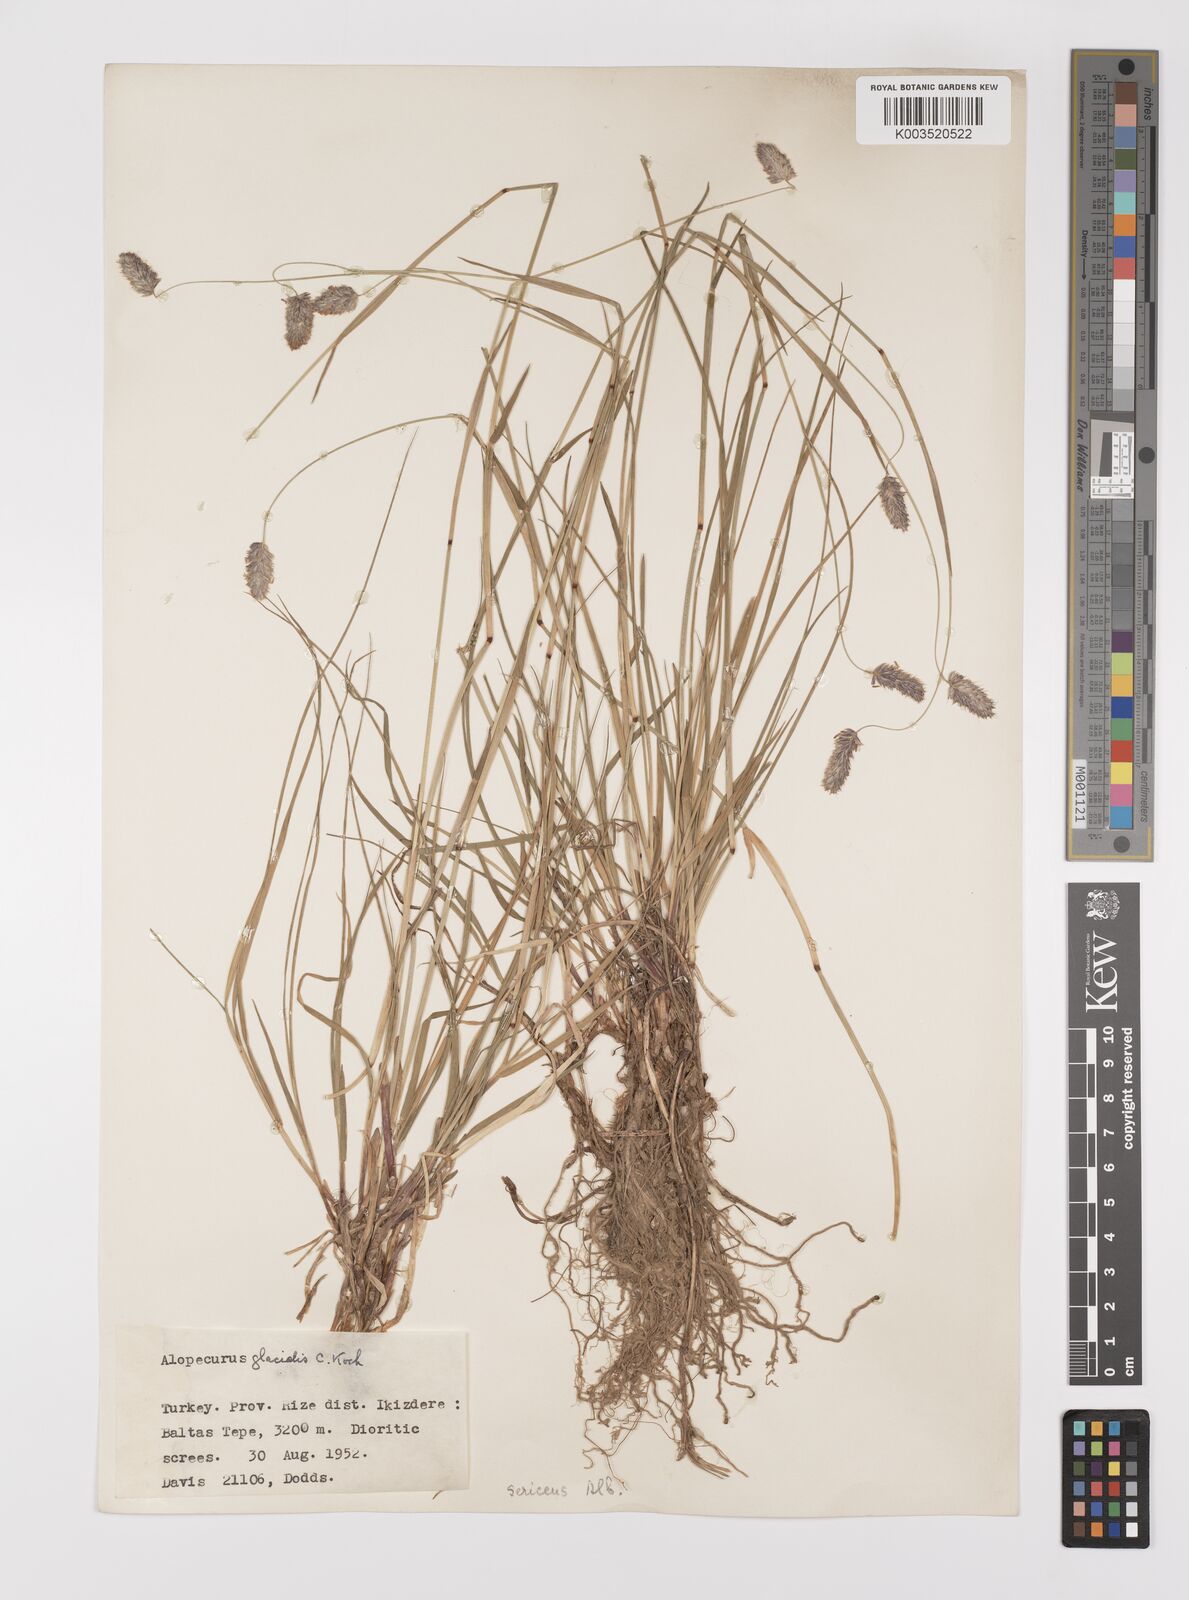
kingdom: Plantae
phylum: Tracheophyta
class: Liliopsida
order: Poales
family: Poaceae
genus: Alopecurus
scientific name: Alopecurus glacialis
